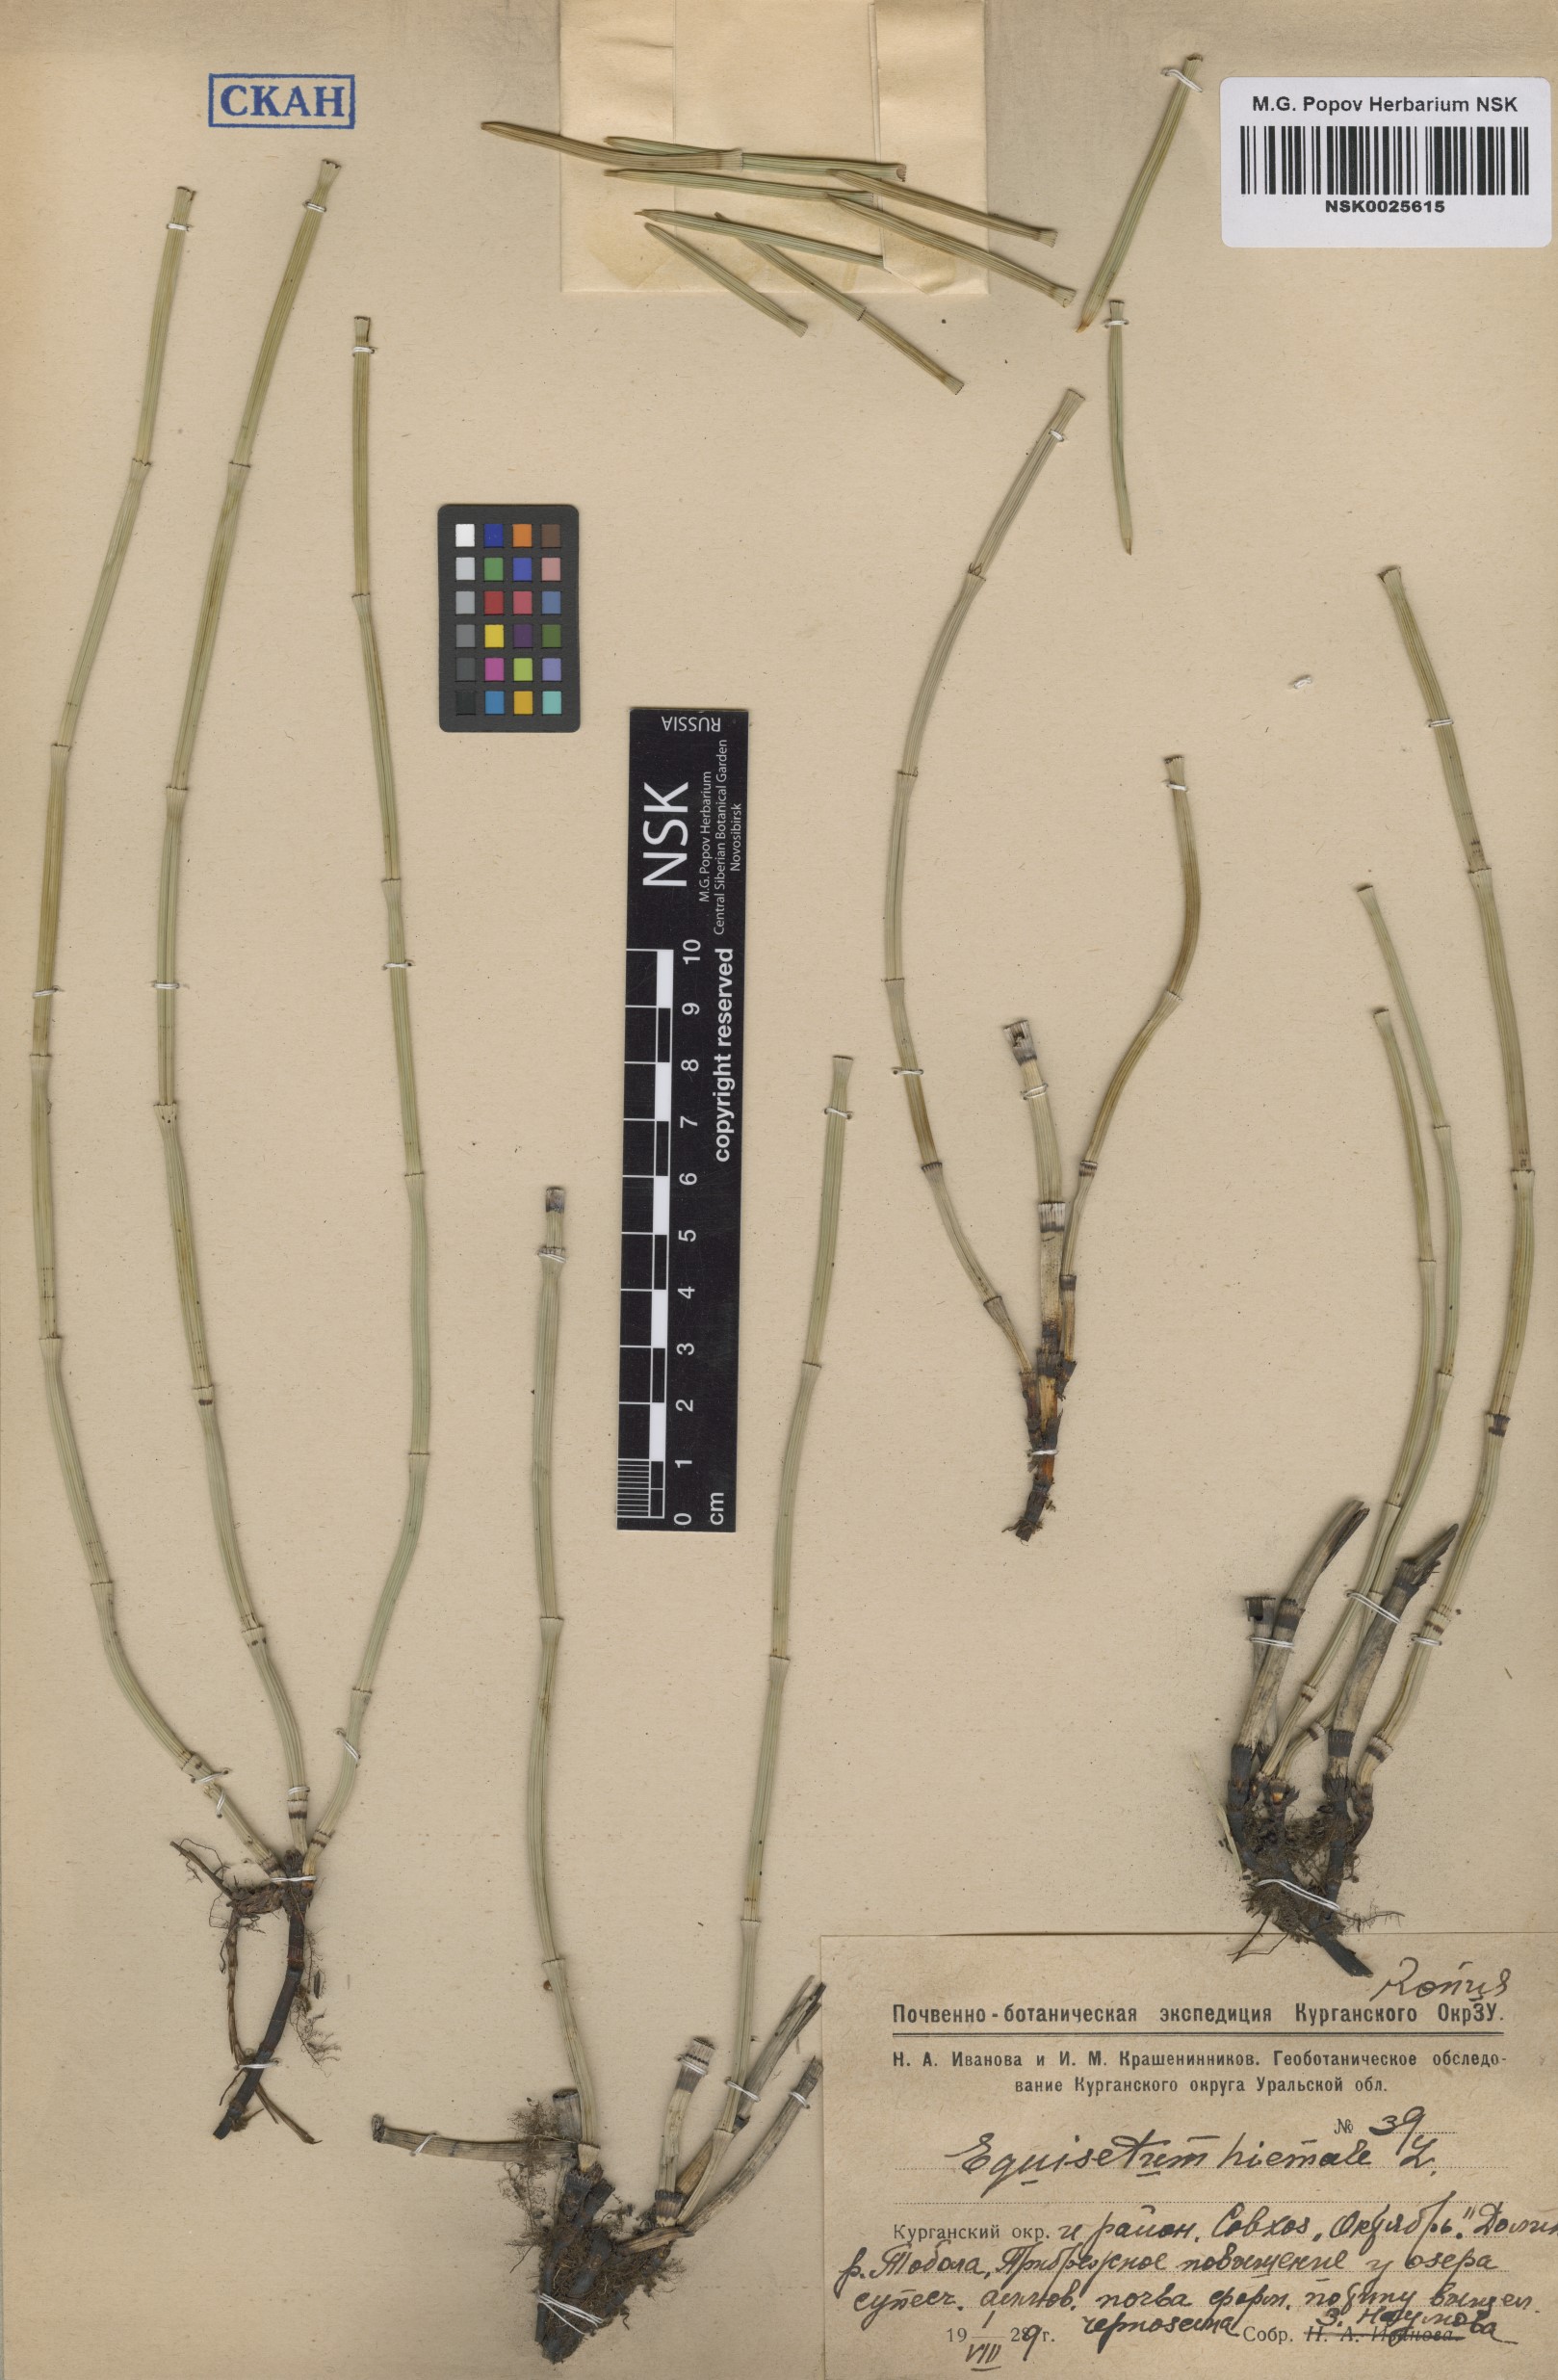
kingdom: Plantae
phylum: Tracheophyta
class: Polypodiopsida
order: Equisetales
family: Equisetaceae
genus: Equisetum
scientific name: Equisetum hyemale
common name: Rough horsetail
